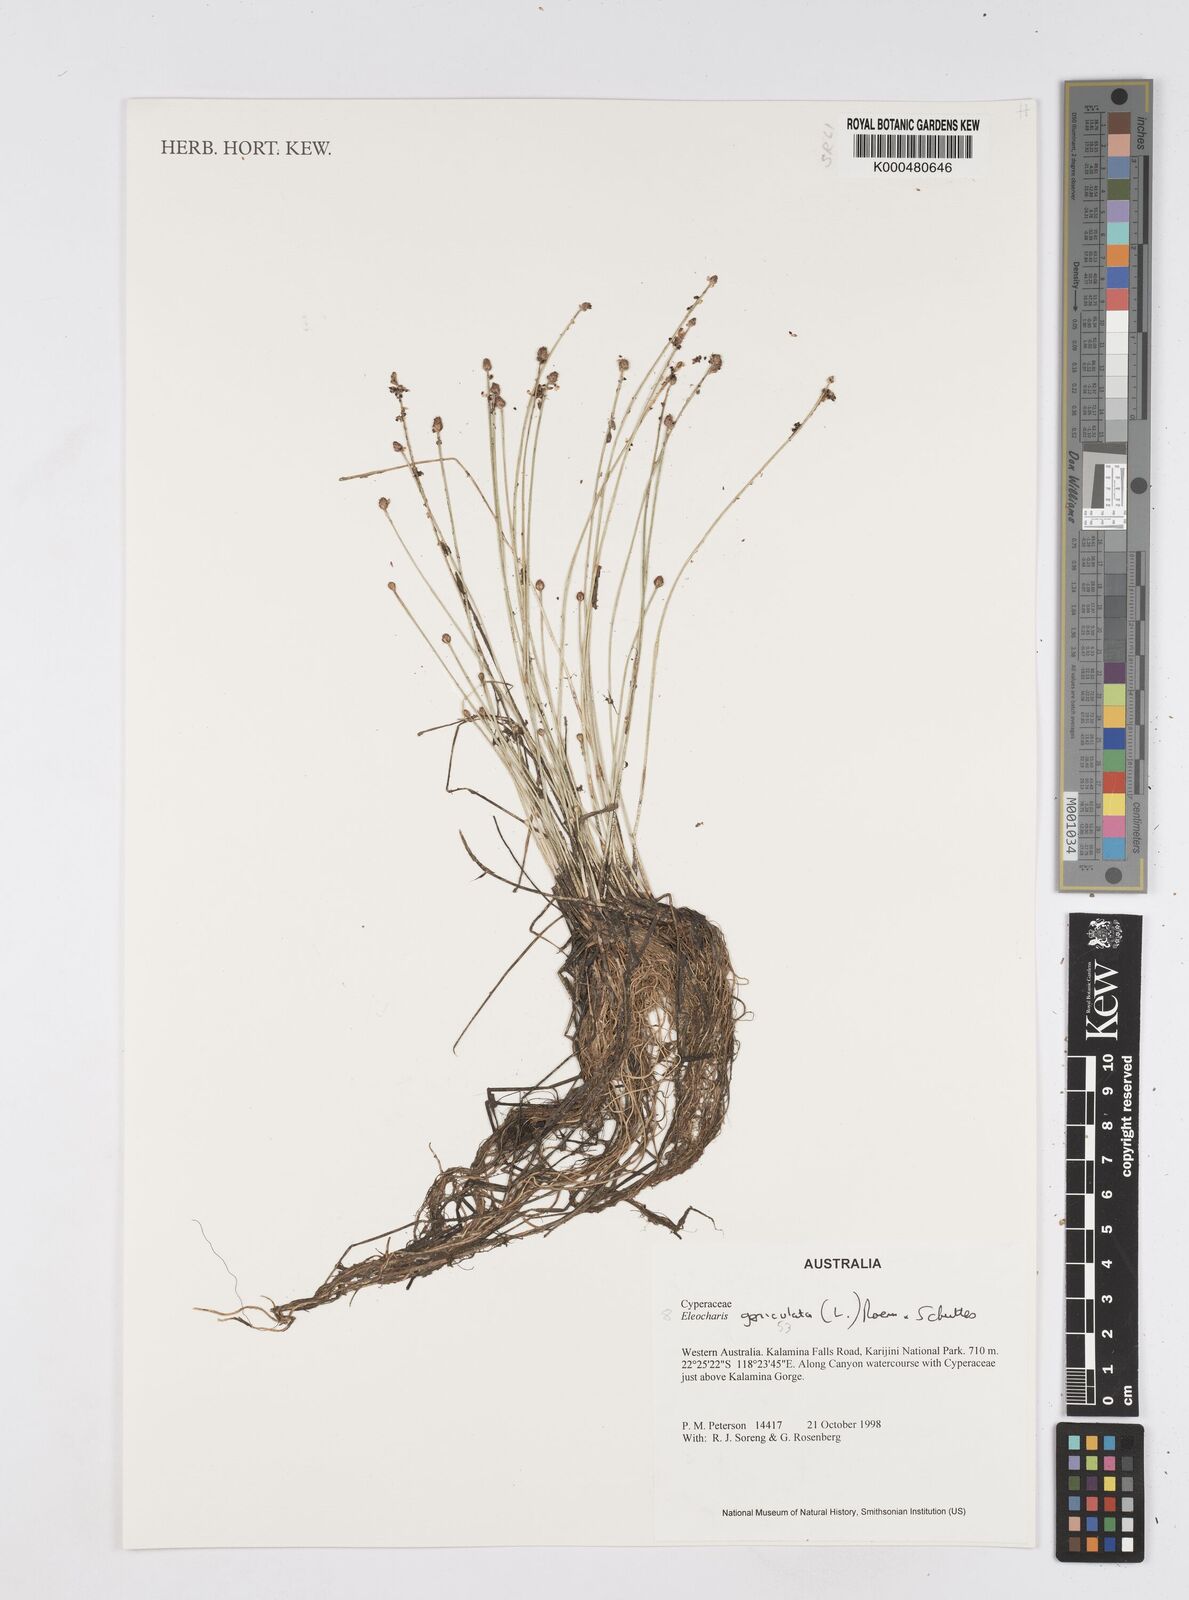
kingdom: Plantae
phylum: Tracheophyta
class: Liliopsida
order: Poales
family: Cyperaceae
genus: Eleocharis
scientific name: Eleocharis geniculata
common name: Canada spikesedge
